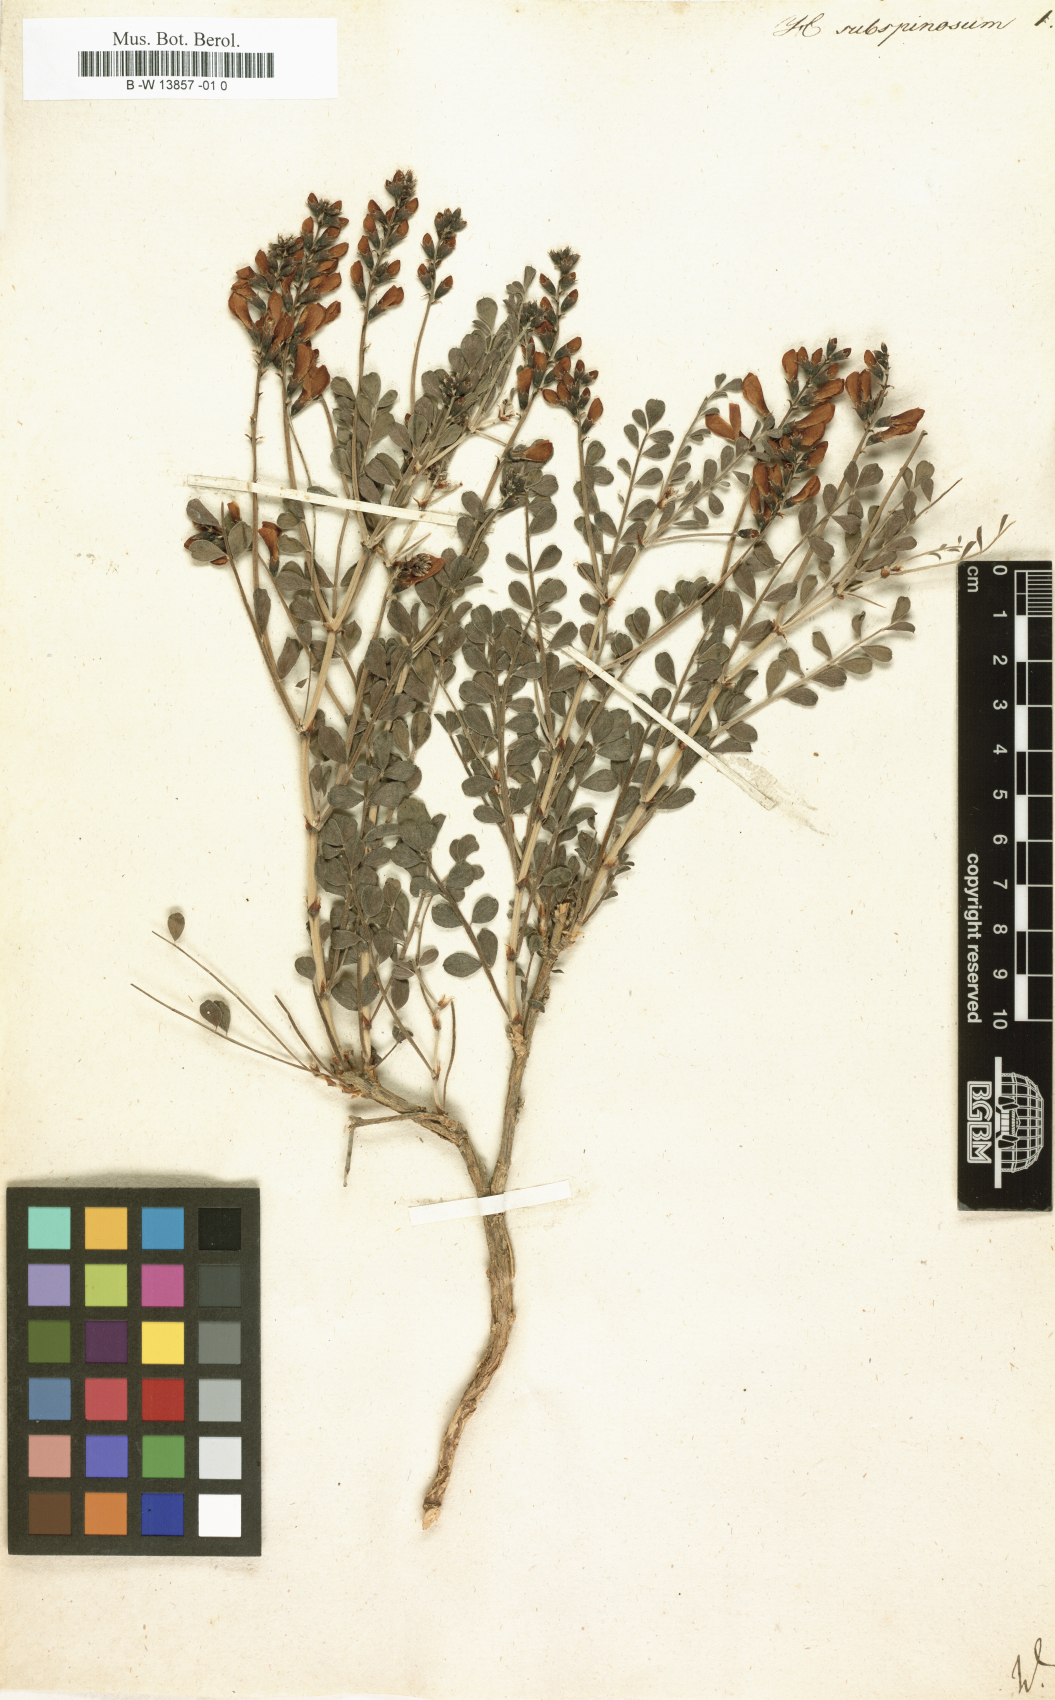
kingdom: Plantae
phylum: Tracheophyta
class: Magnoliopsida
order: Fabales
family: Fabaceae
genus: Eversmannia
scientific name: Eversmannia subspinosa
